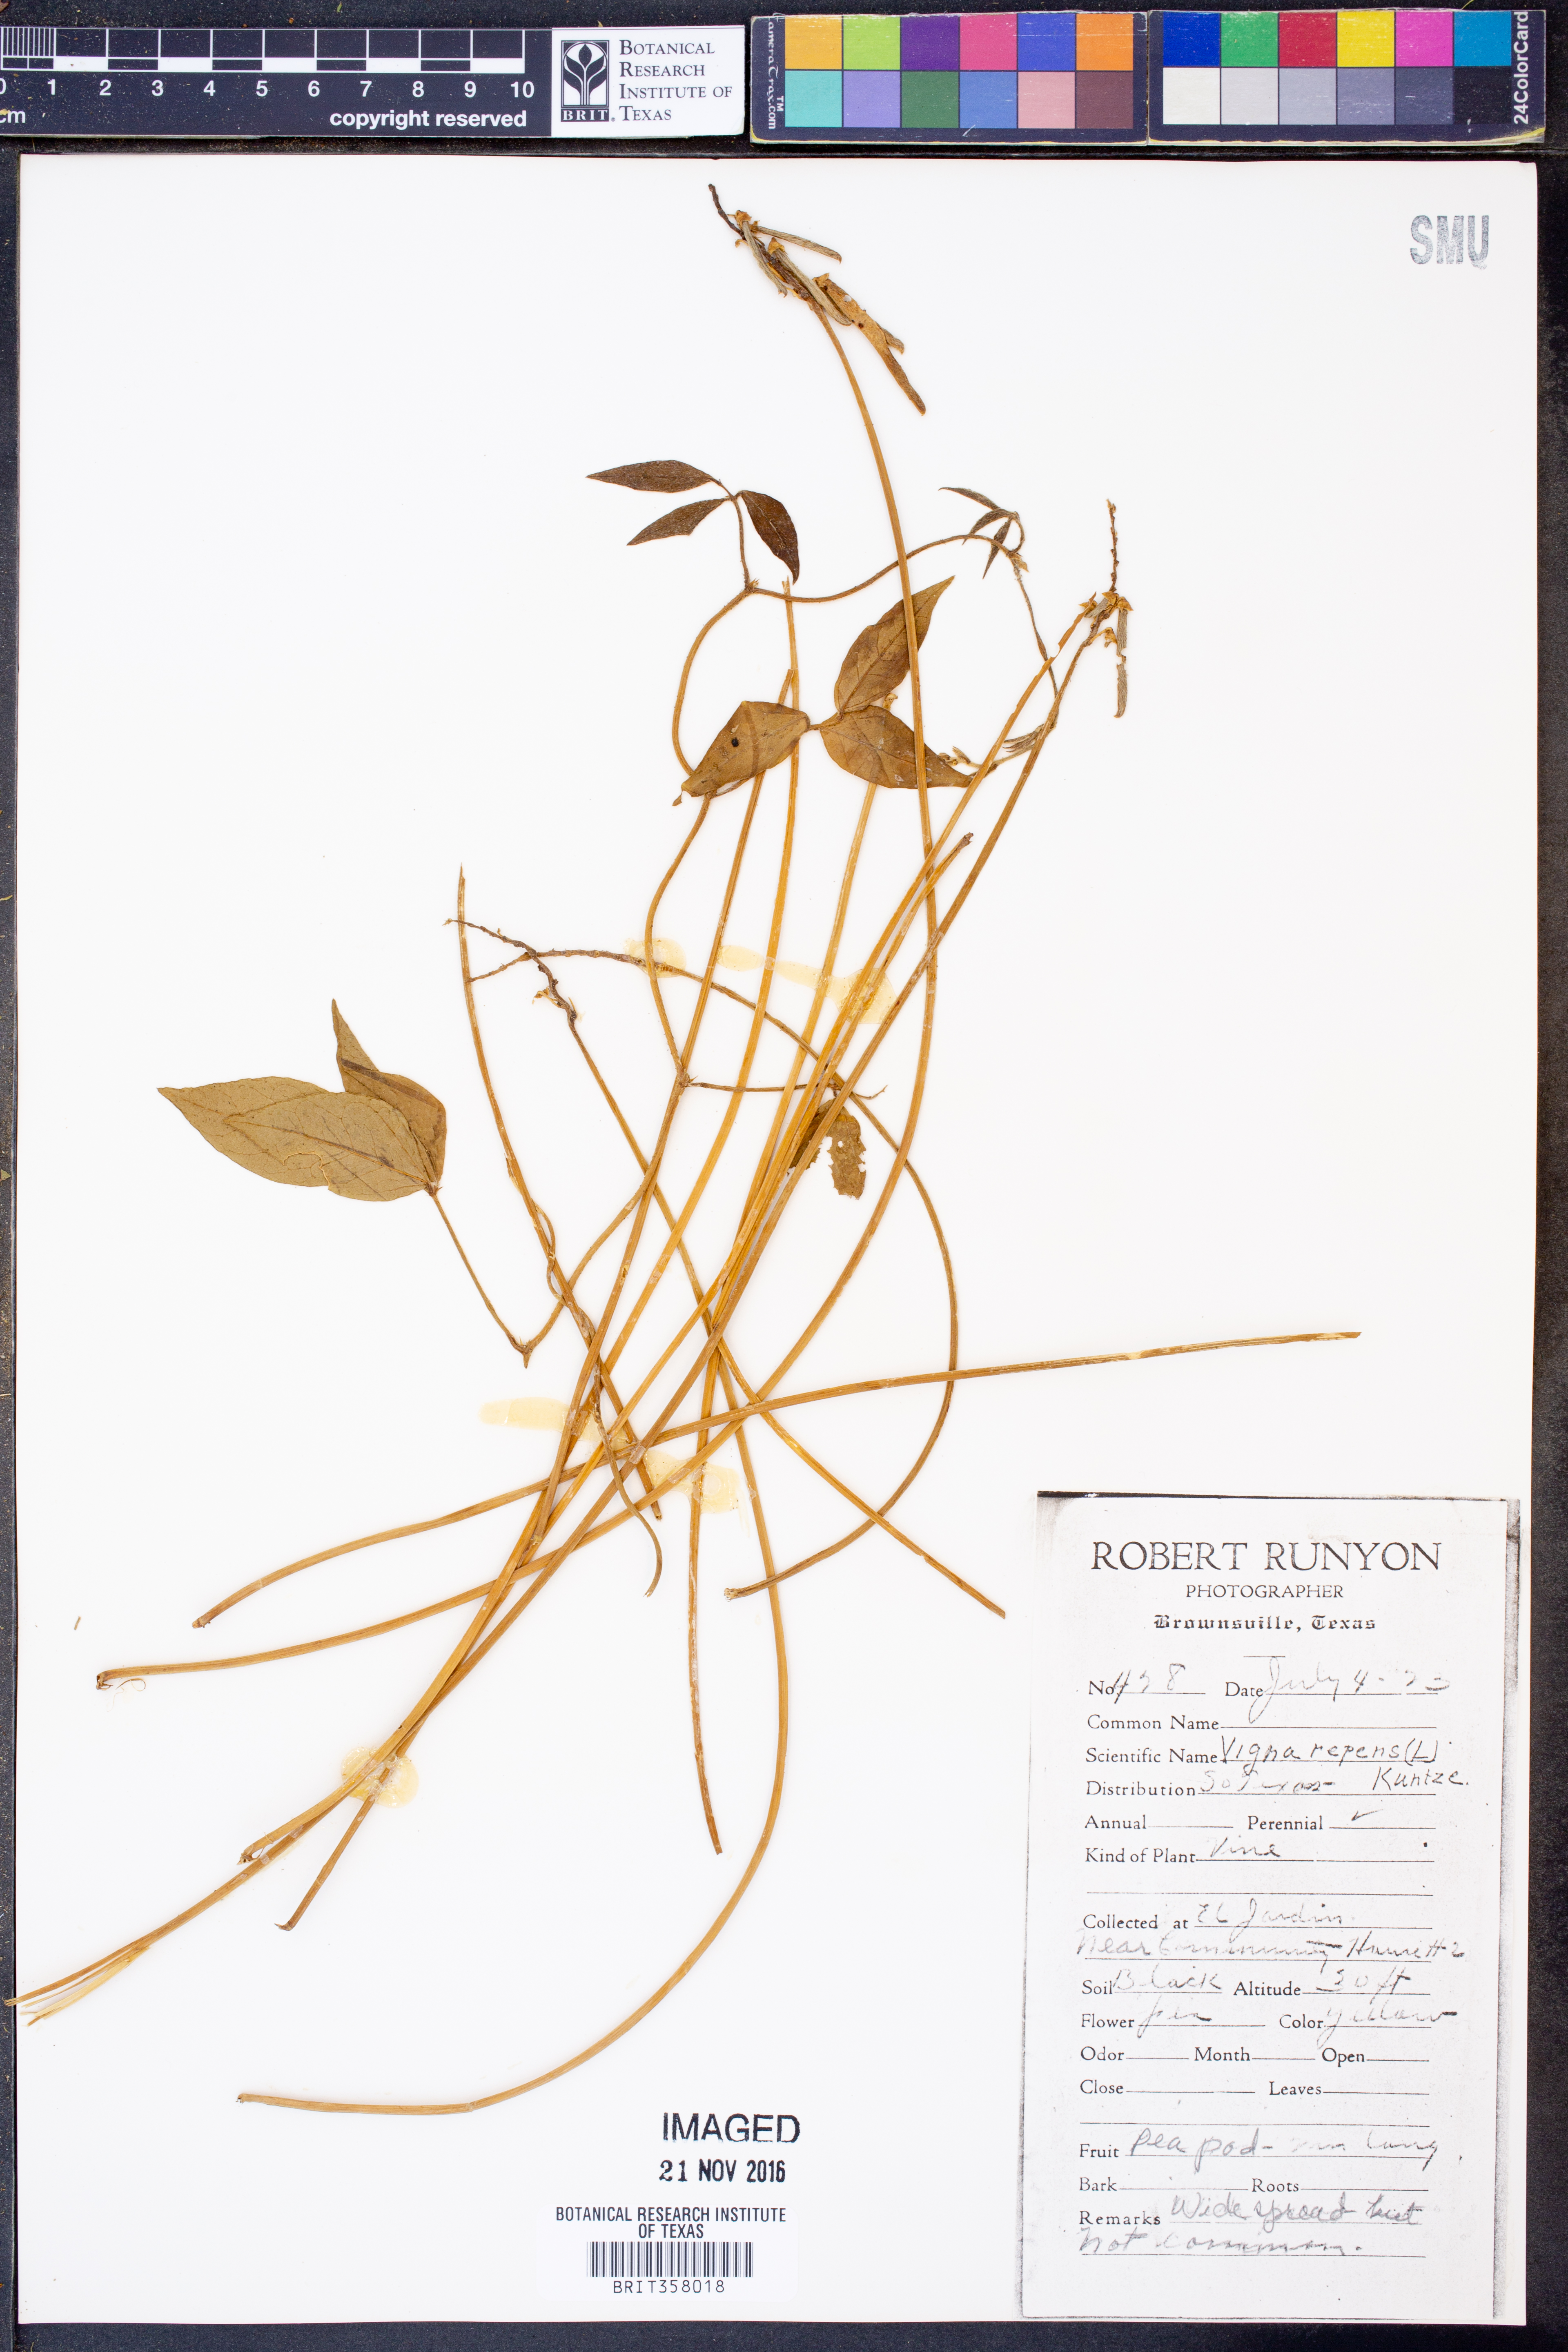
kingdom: Plantae
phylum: Tracheophyta
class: Magnoliopsida
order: Fabales
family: Fabaceae
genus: Vigna
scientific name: Vigna luteola
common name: Hairypod cowpea
